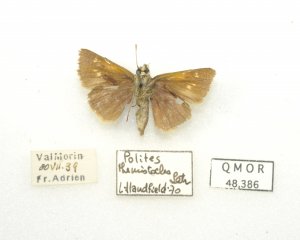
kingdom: Animalia
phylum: Arthropoda
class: Insecta
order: Lepidoptera
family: Hesperiidae
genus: Polites
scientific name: Polites themistocles
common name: Tawny-edged Skipper
